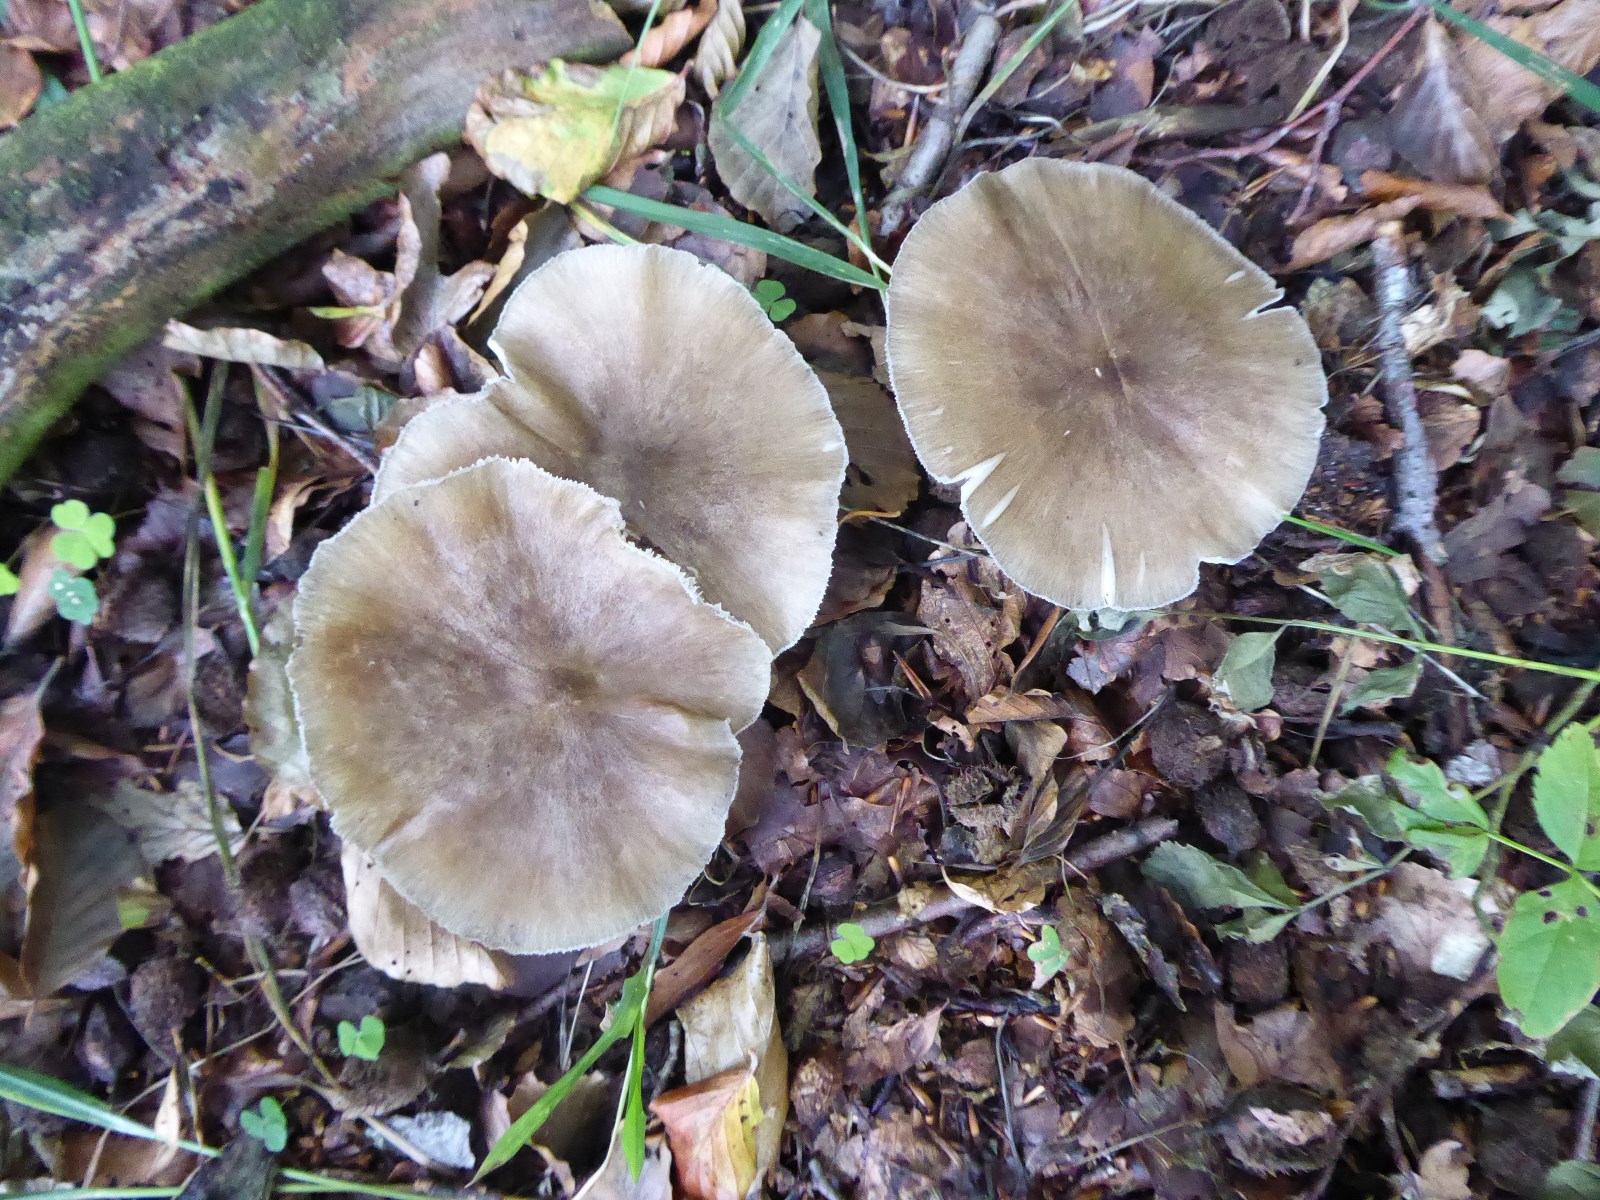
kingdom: Fungi
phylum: Basidiomycota
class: Agaricomycetes
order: Agaricales
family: Tricholomataceae
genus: Megacollybia
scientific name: Megacollybia platyphylla
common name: bredbladet væbnerhat
